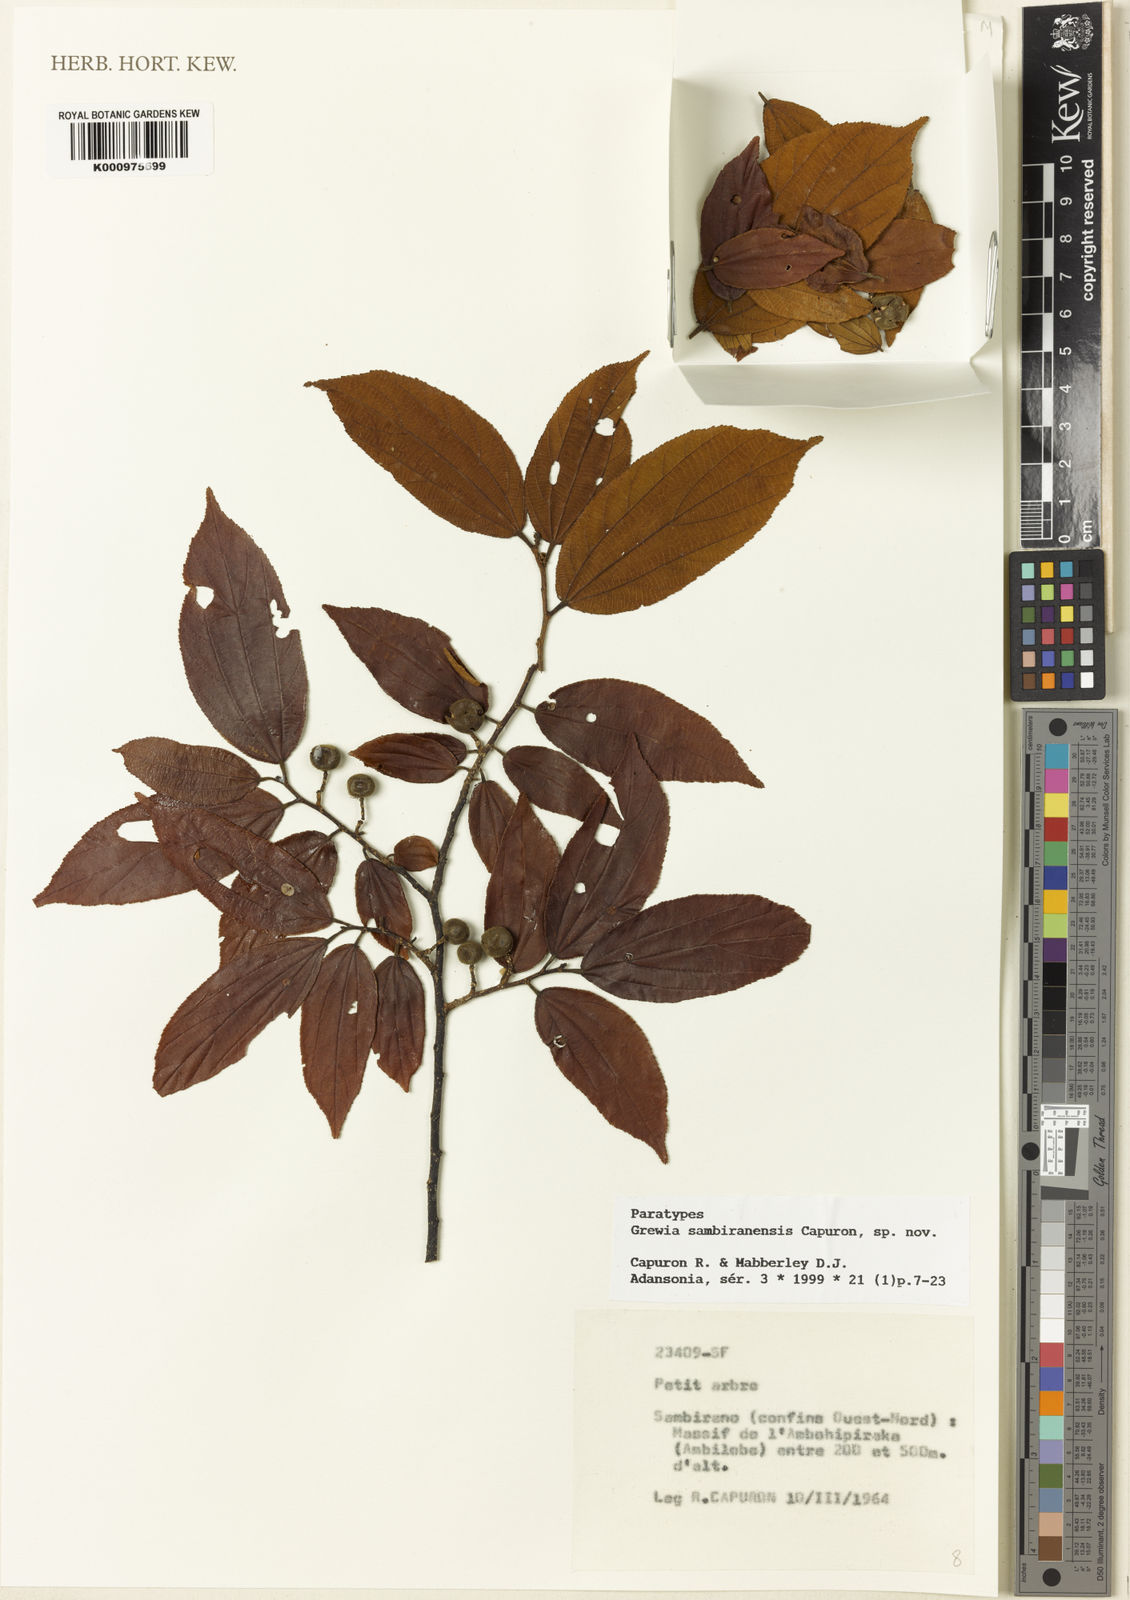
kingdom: Plantae
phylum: Tracheophyta
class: Magnoliopsida
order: Malvales
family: Malvaceae
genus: Grewia
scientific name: Grewia sambiranensis
